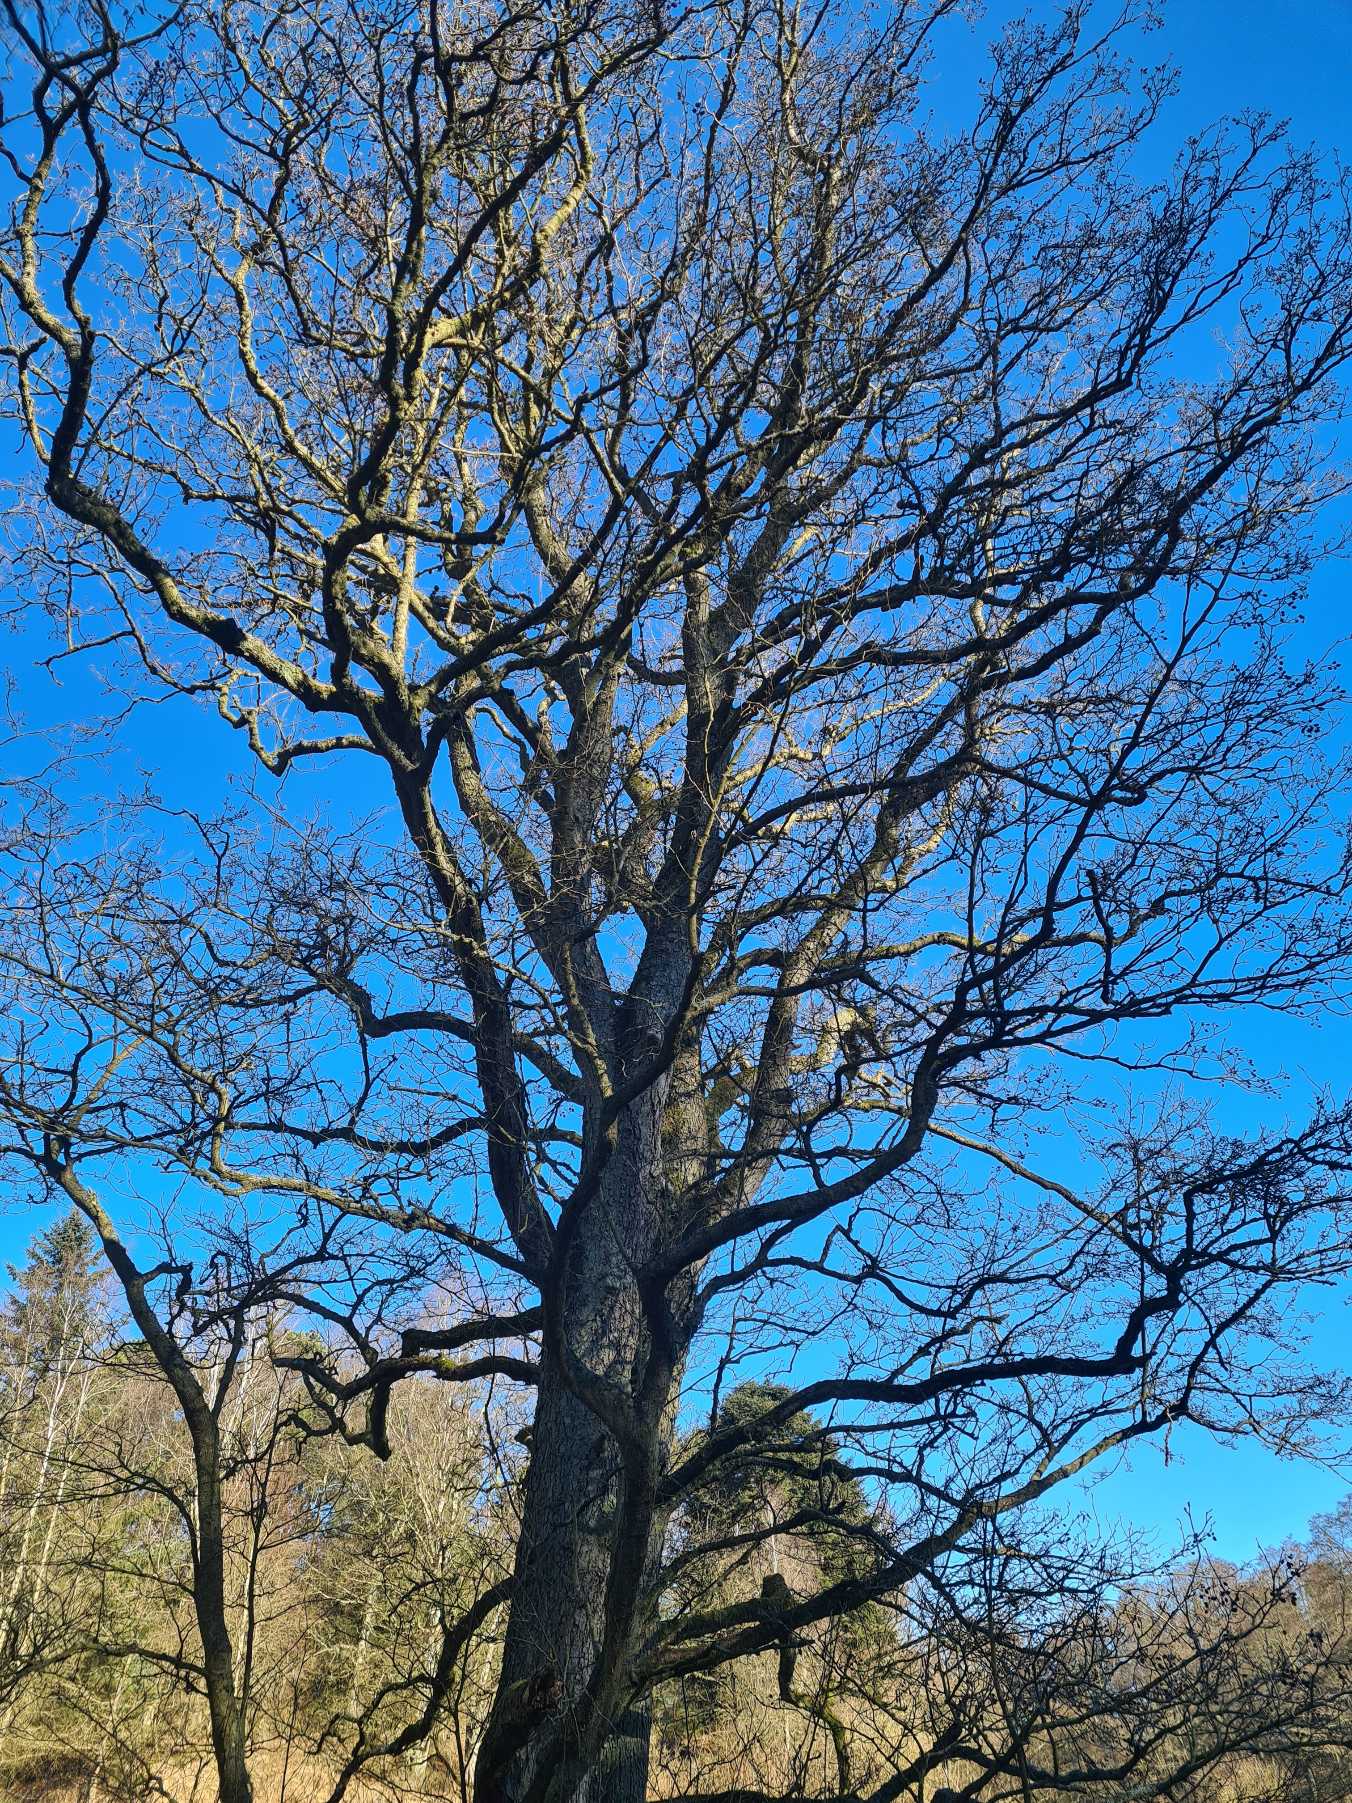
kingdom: Plantae
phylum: Tracheophyta
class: Magnoliopsida
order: Fagales
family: Betulaceae
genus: Alnus
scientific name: Alnus glutinosa
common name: Rød-el
